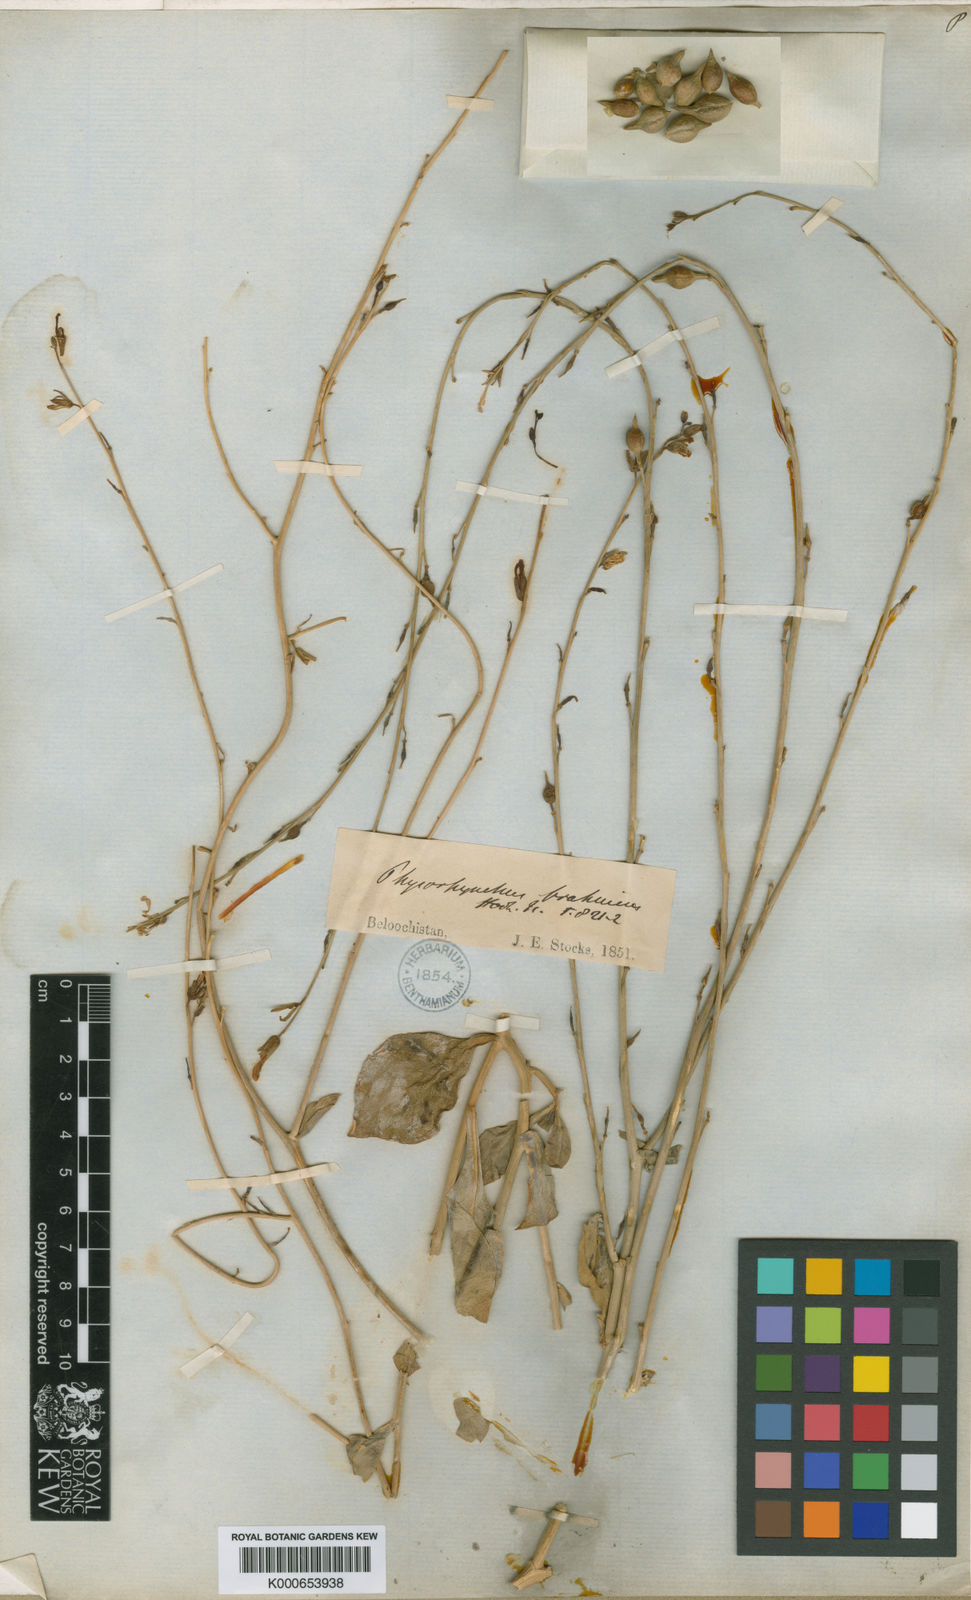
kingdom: Plantae
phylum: Tracheophyta
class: Magnoliopsida
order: Brassicales
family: Brassicaceae
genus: Physorhynchus
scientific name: Physorhynchus brahuicus
